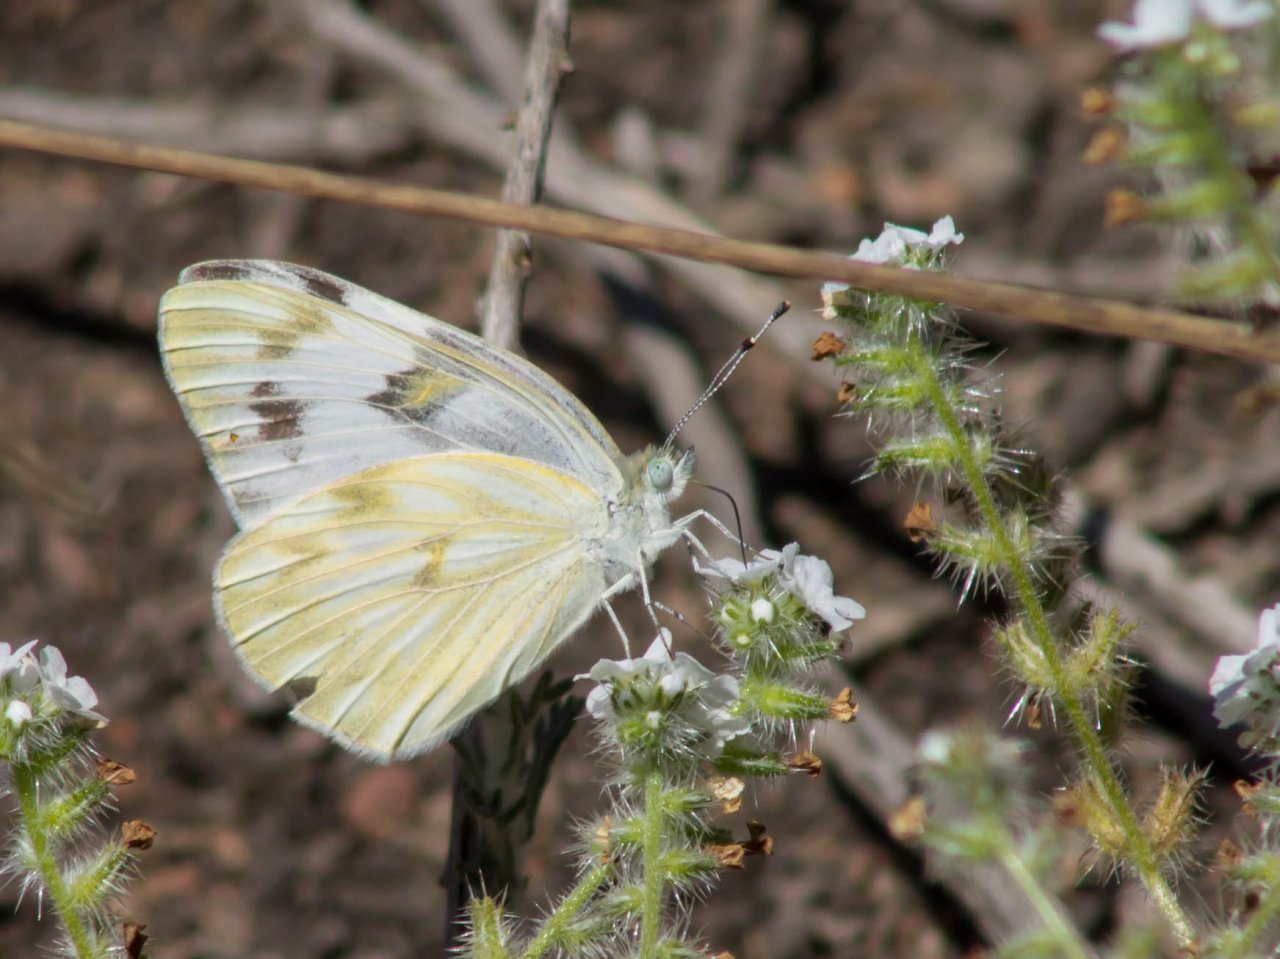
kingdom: Animalia
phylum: Arthropoda
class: Insecta
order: Lepidoptera
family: Pieridae
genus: Pontia
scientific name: Pontia protodice
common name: Checkered White
